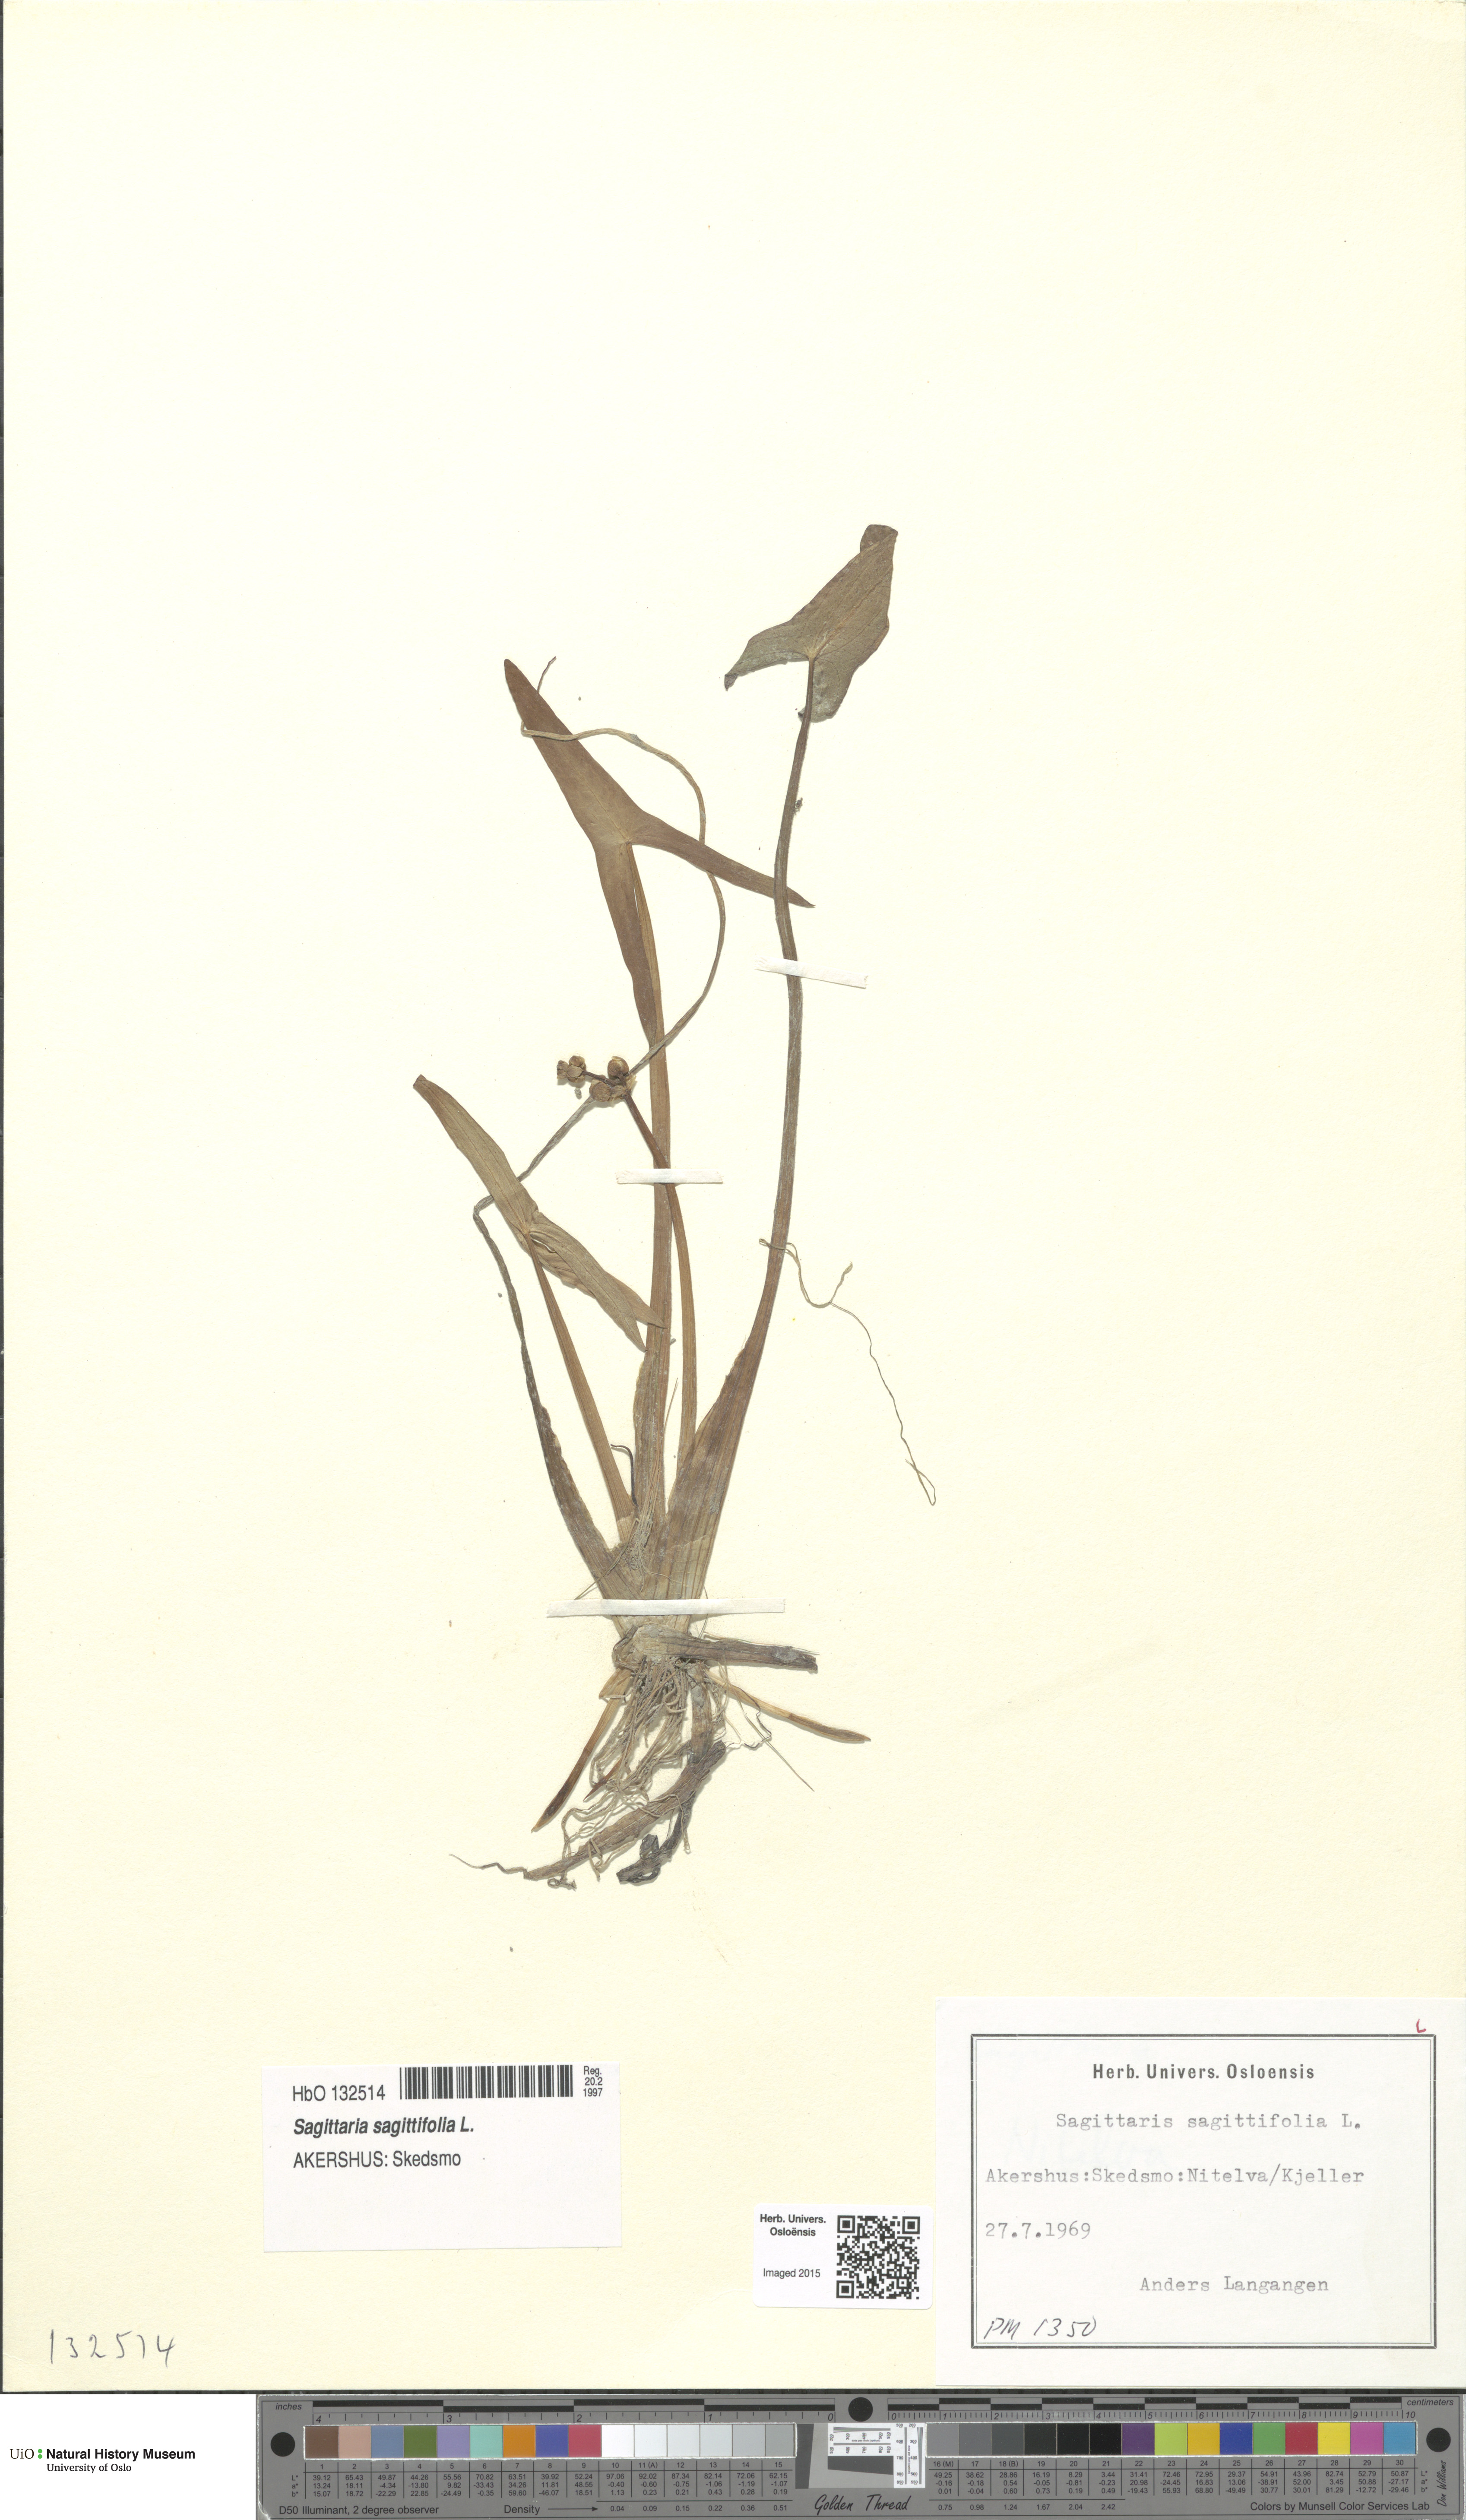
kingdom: Plantae
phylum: Tracheophyta
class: Liliopsida
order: Alismatales
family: Alismataceae
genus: Sagittaria
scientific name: Sagittaria sagittifolia
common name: Arrowhead
